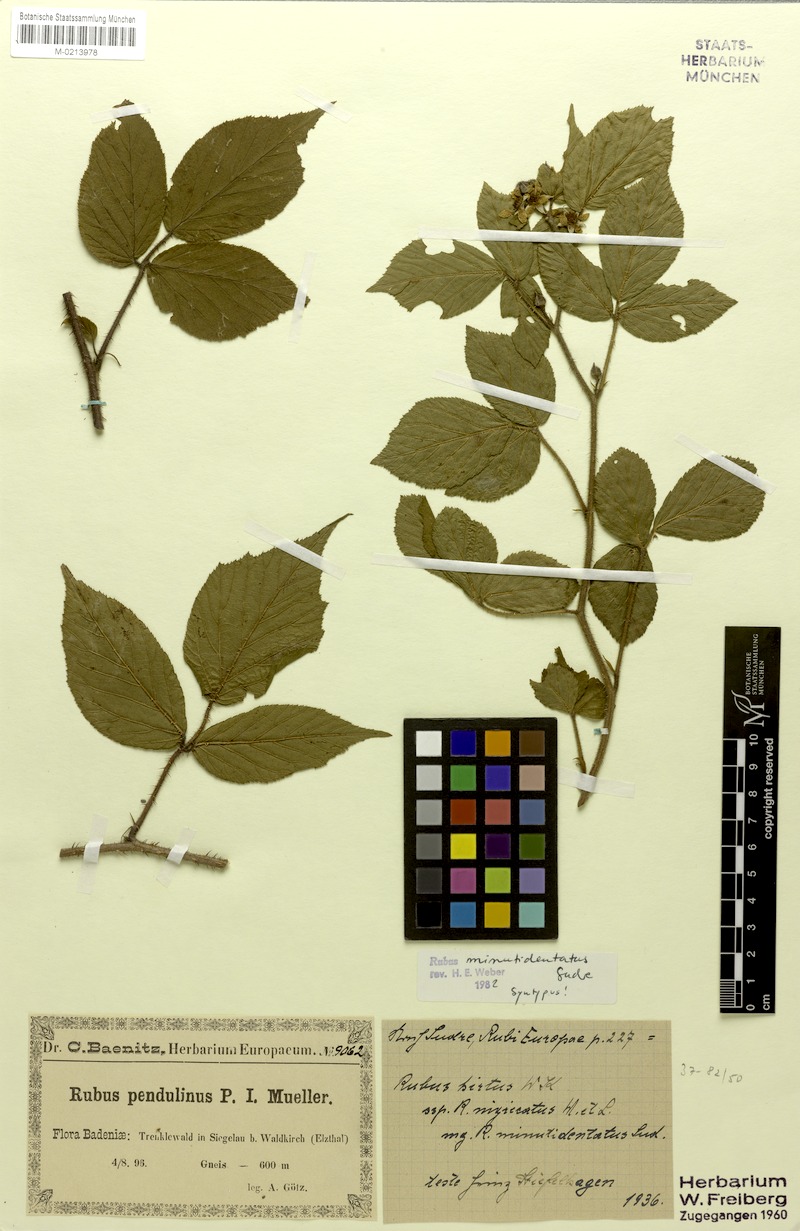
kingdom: Plantae
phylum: Tracheophyta
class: Magnoliopsida
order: Rosales
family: Rosaceae
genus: Rubus
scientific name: Rubus hirtus
